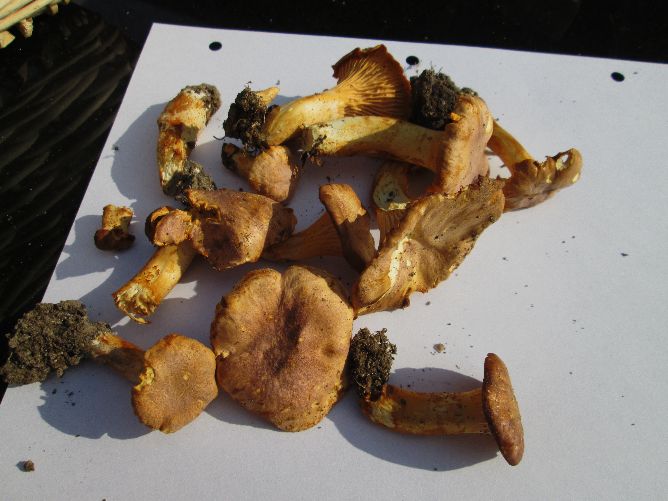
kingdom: Fungi
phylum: Basidiomycota
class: Agaricomycetes
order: Cantharellales
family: Hydnaceae
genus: Cantharellus
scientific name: Cantharellus amethysteus
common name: ametyst-kantarel
